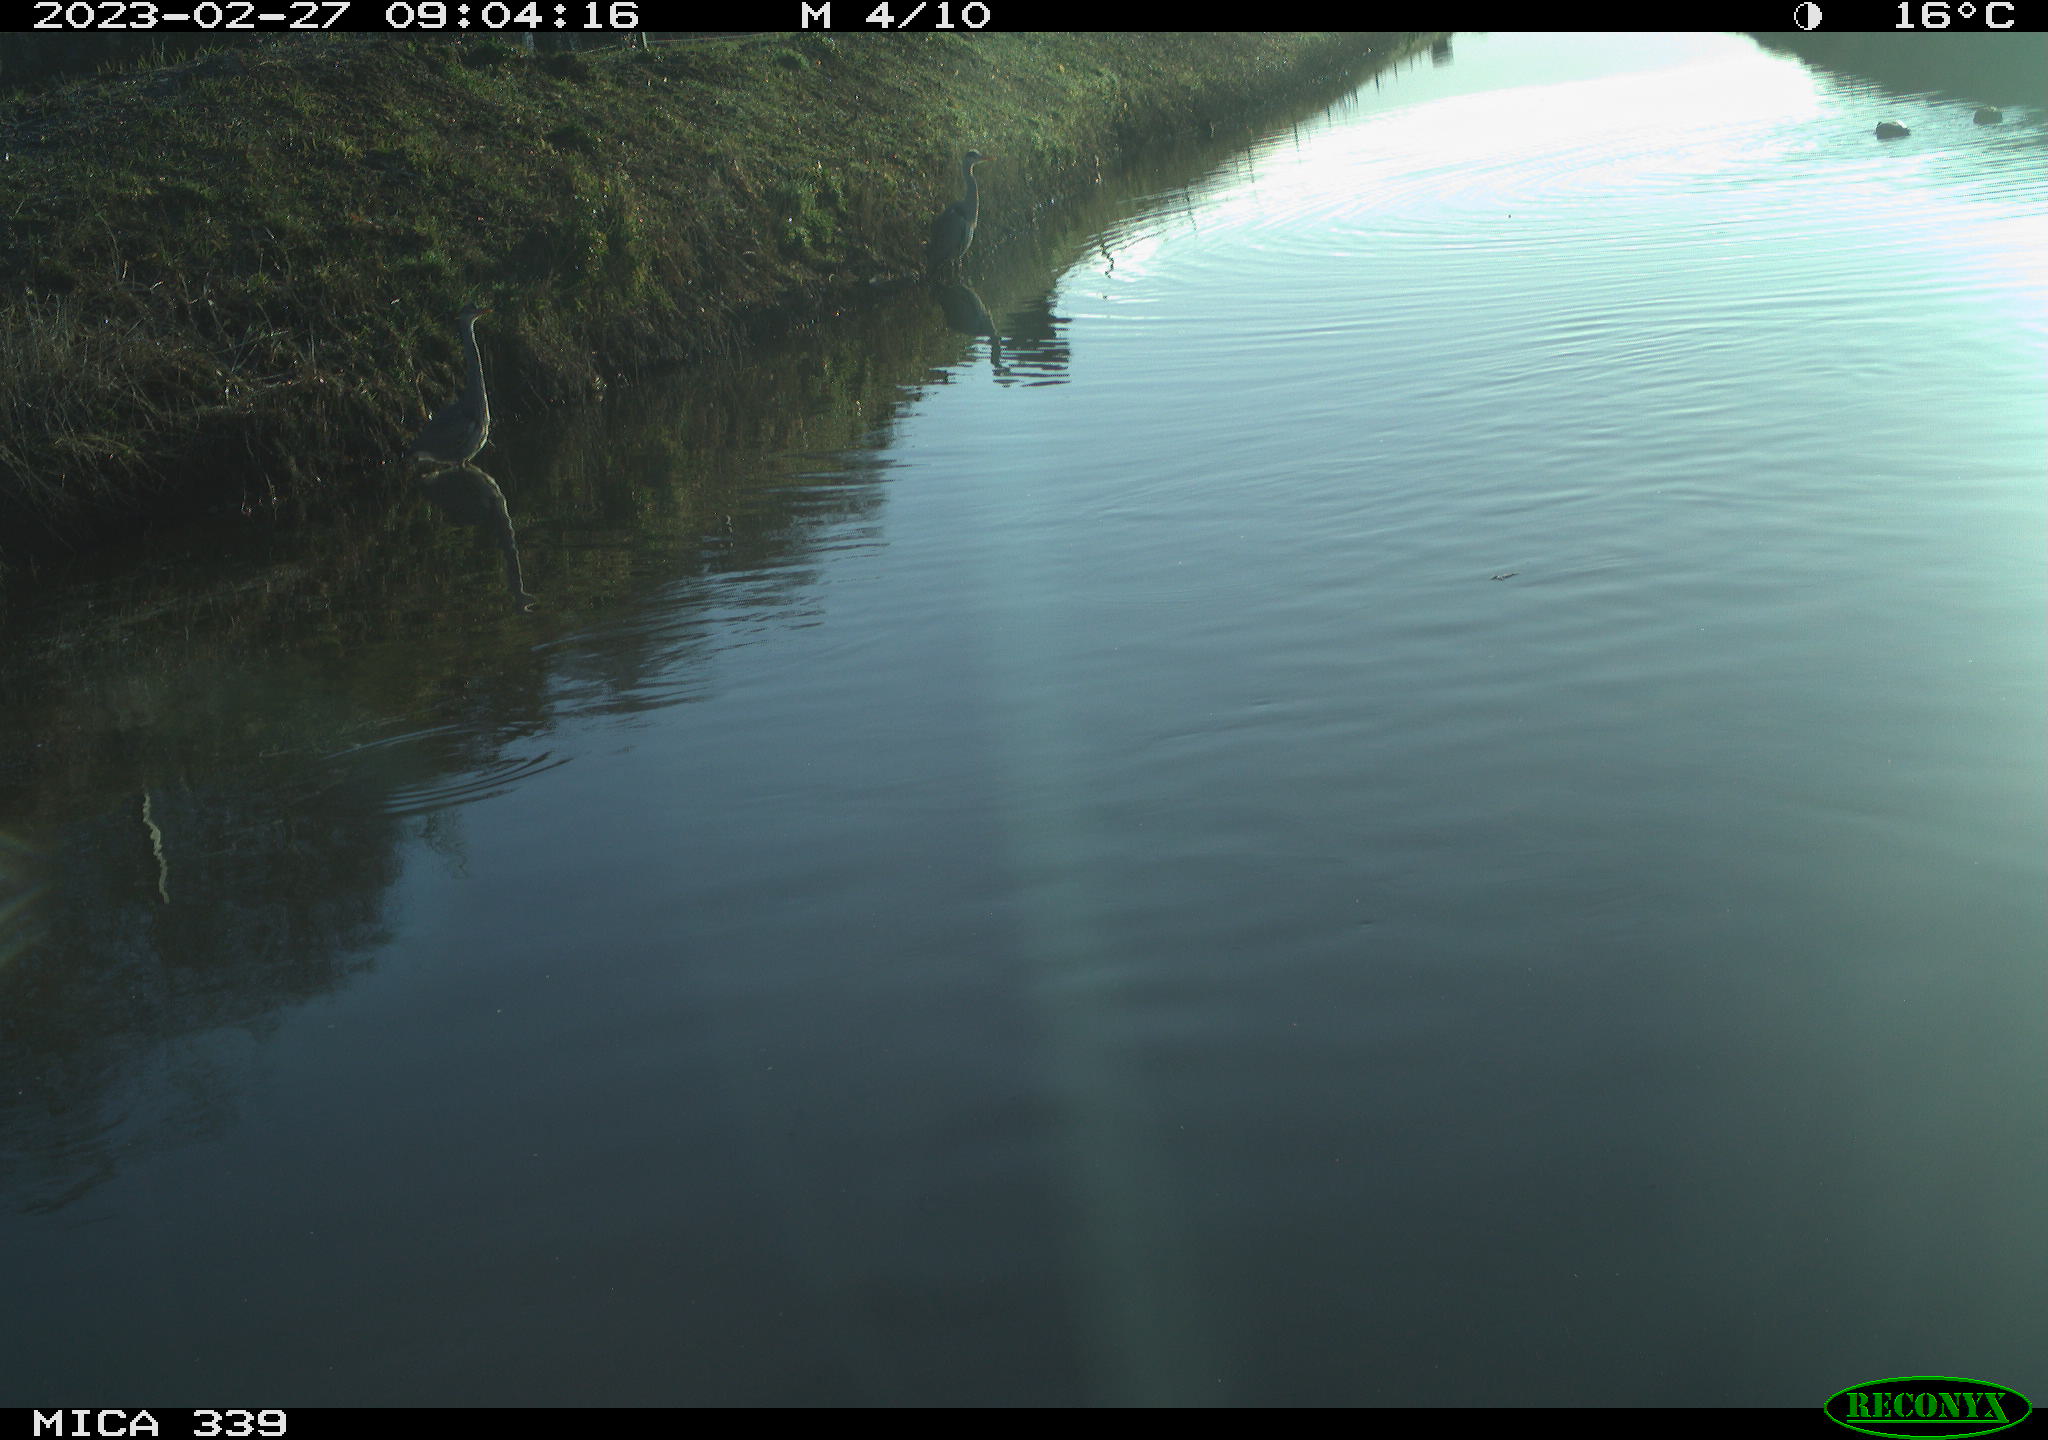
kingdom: Animalia
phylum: Chordata
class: Aves
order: Pelecaniformes
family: Ardeidae
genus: Ardea
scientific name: Ardea cinerea
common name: Grey heron
